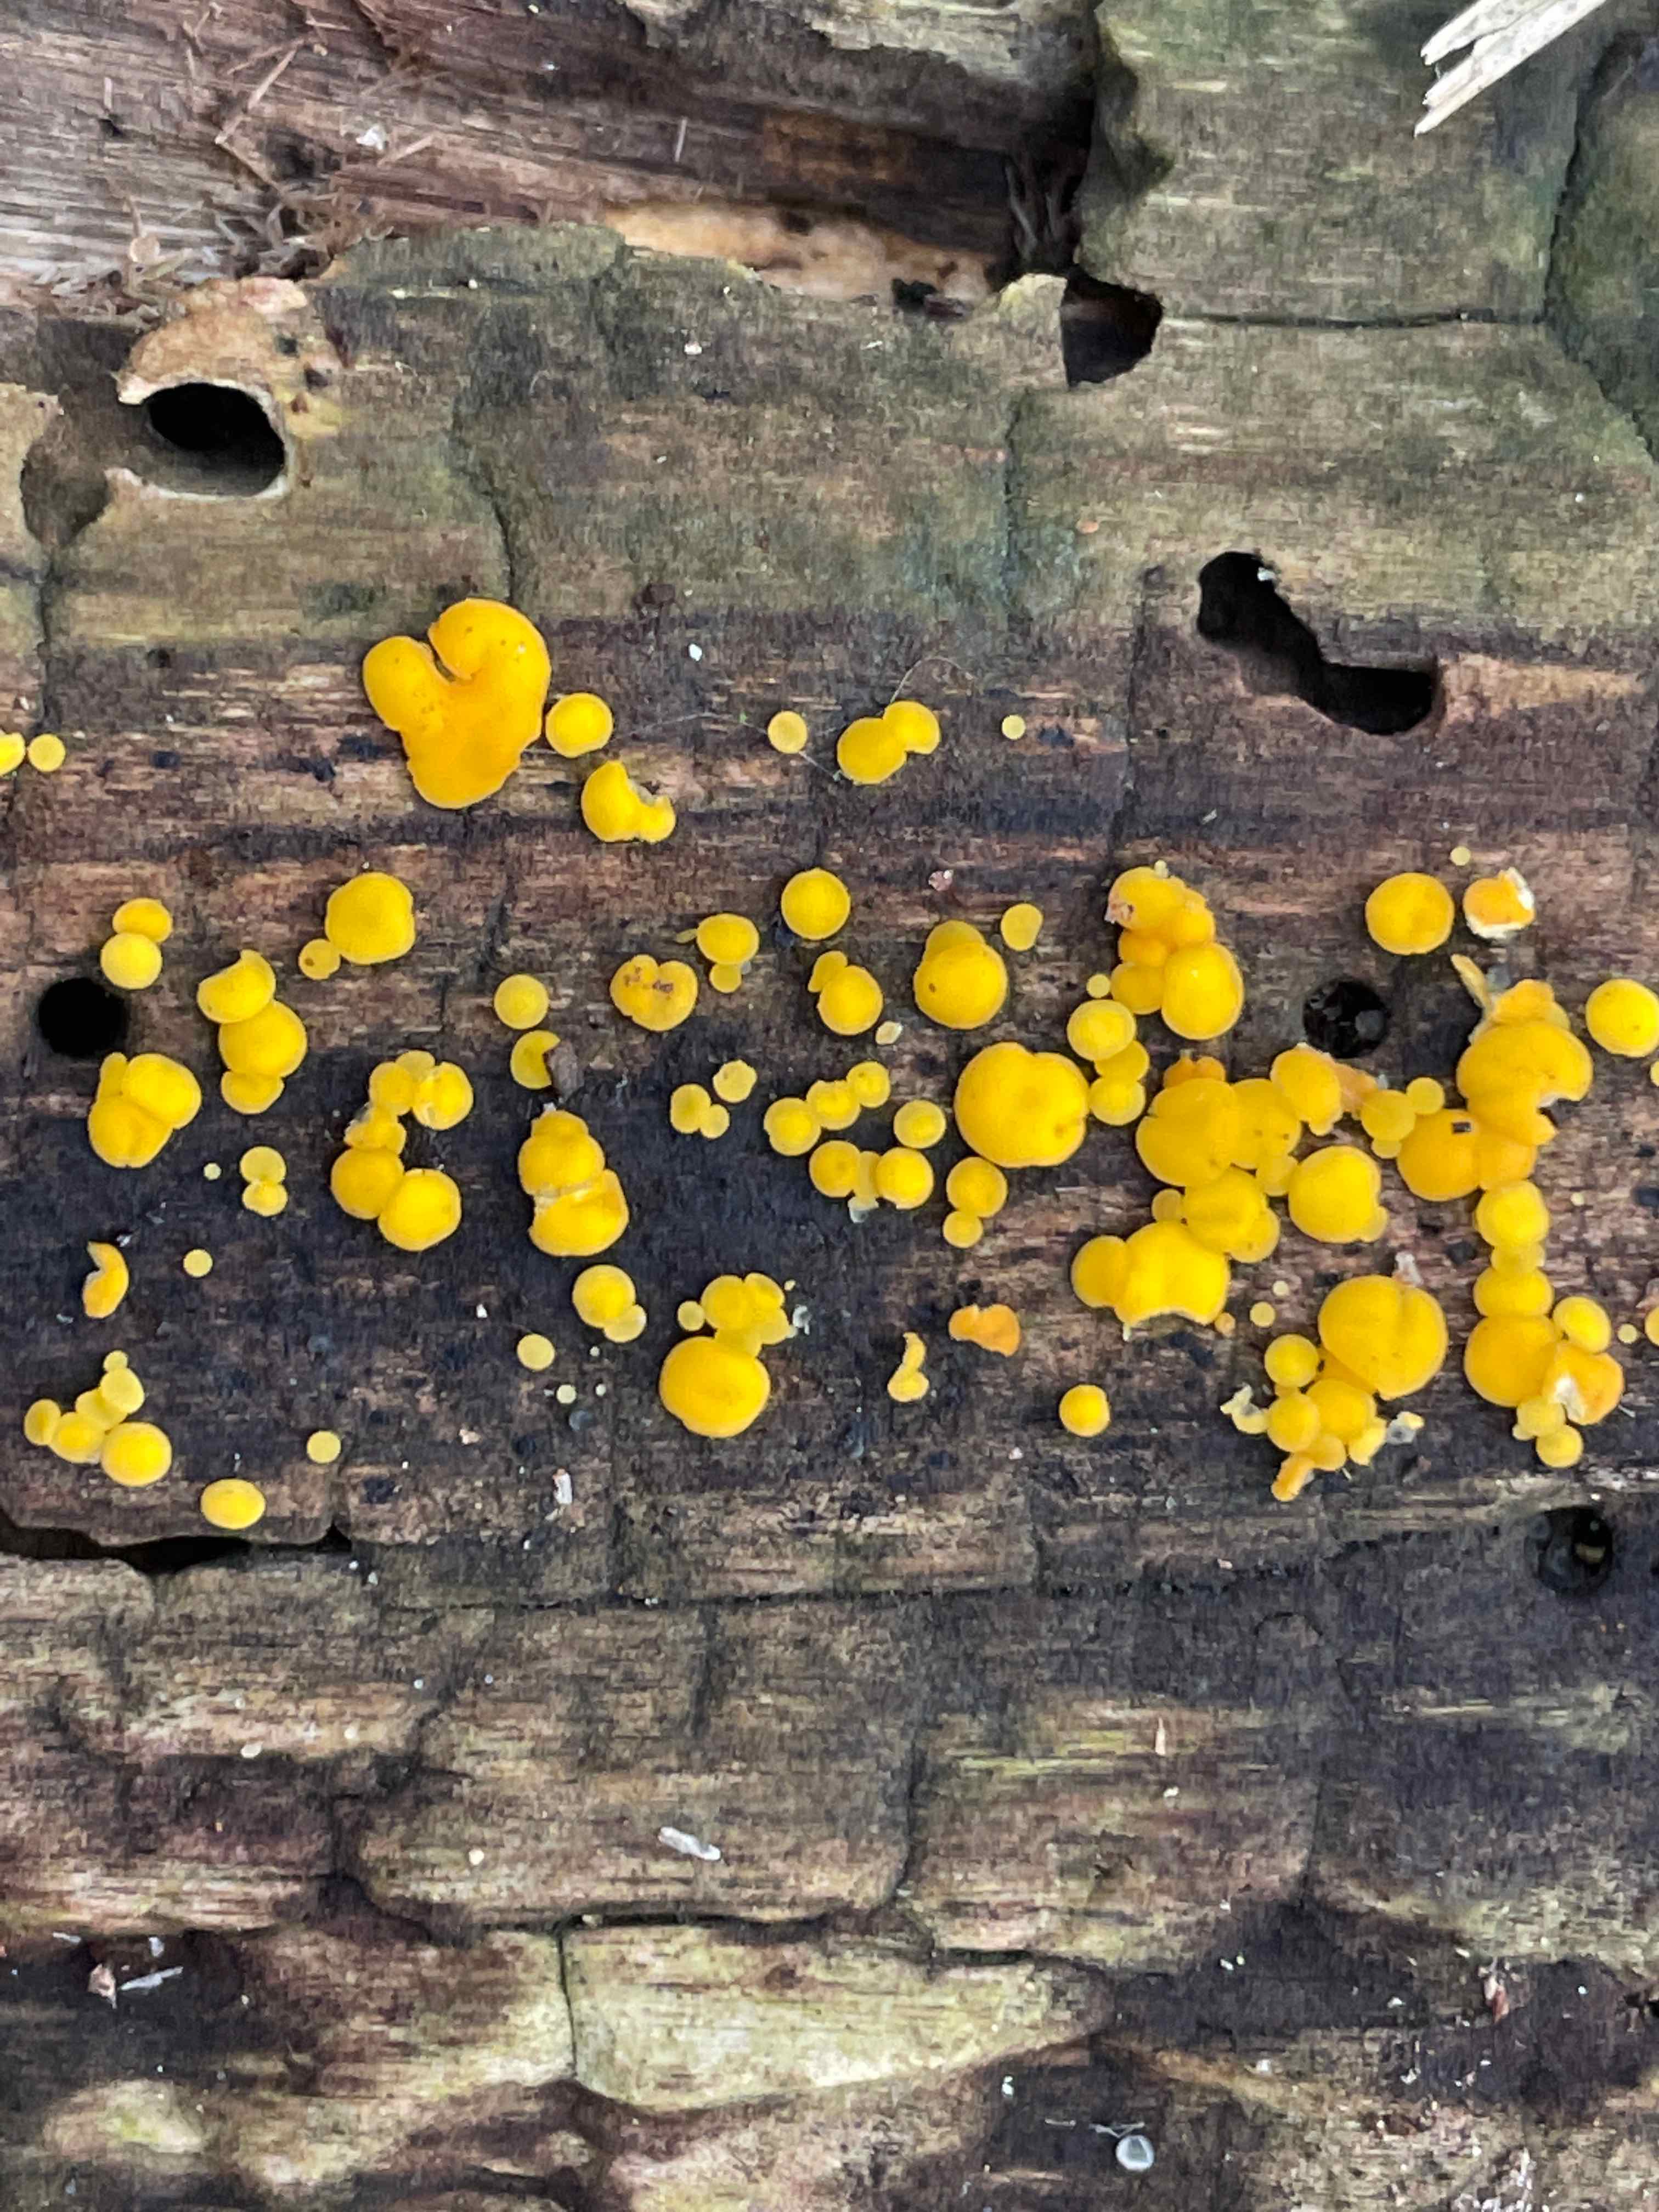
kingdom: Fungi
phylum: Ascomycota
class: Leotiomycetes
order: Helotiales
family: Pezizellaceae
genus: Calycina
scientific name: Calycina citrina
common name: almindelig gulskive
